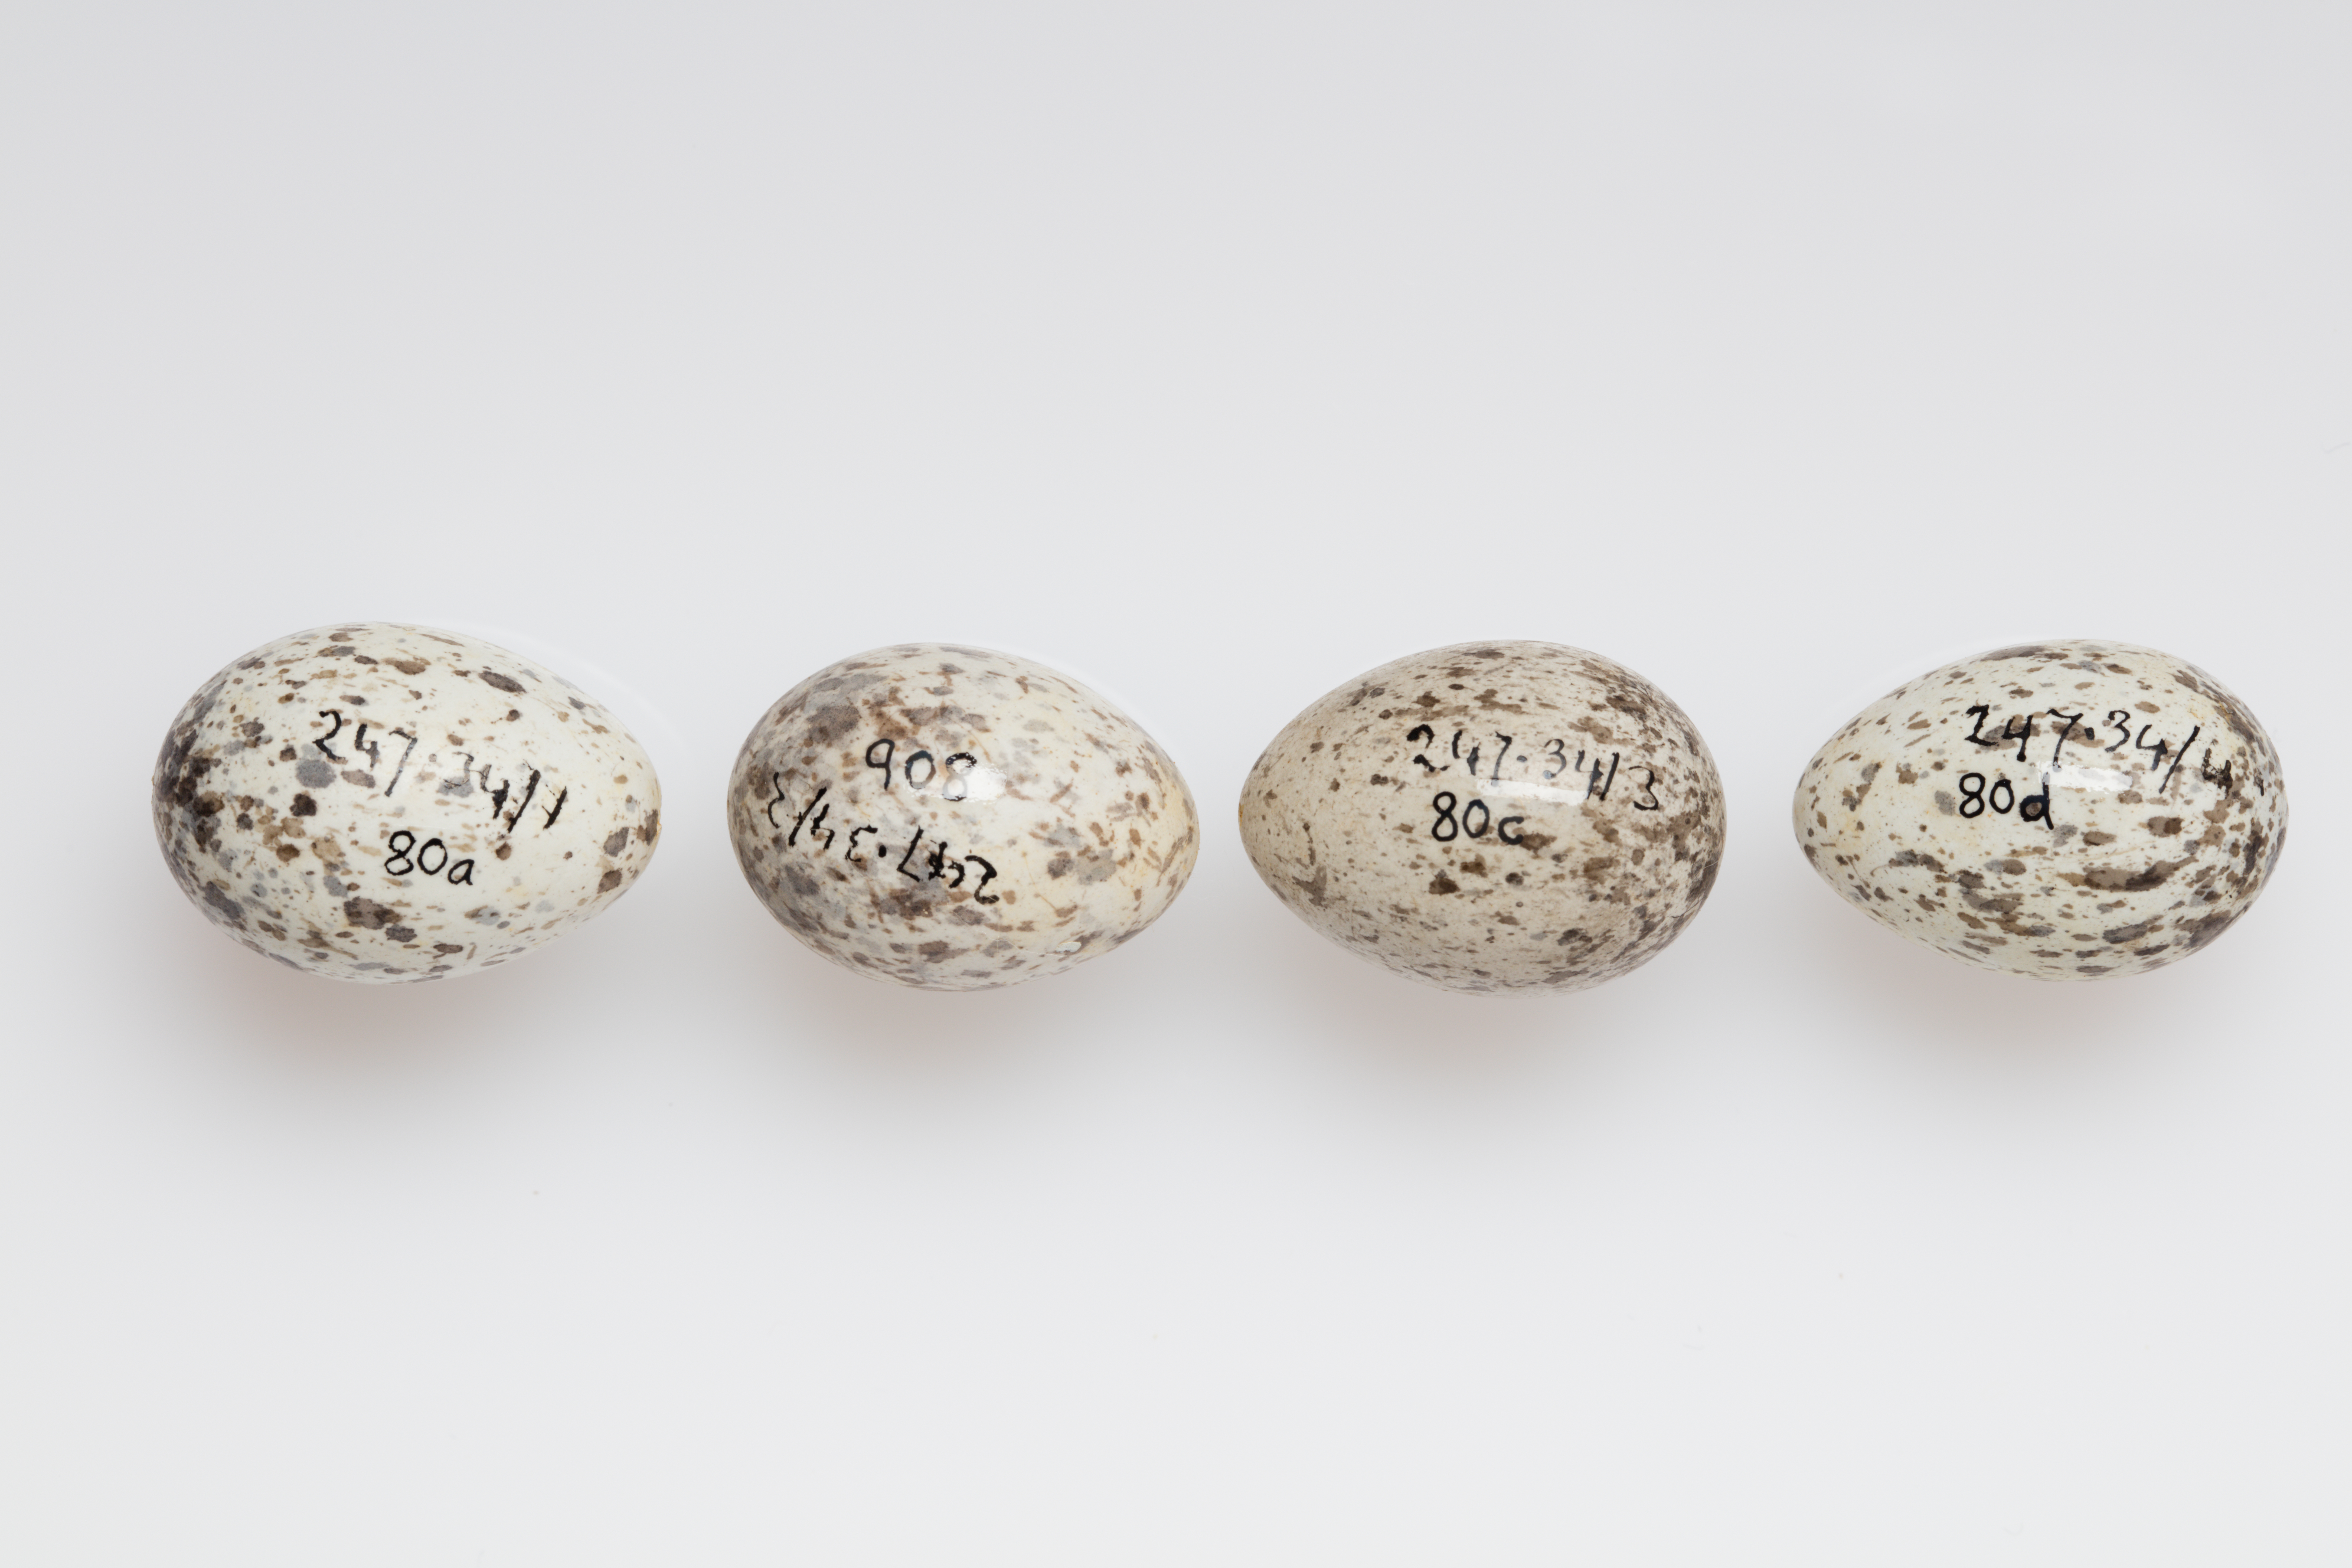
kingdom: Animalia
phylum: Chordata
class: Aves
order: Passeriformes
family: Passeridae
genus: Passer
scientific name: Passer domesticus
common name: House sparrow
